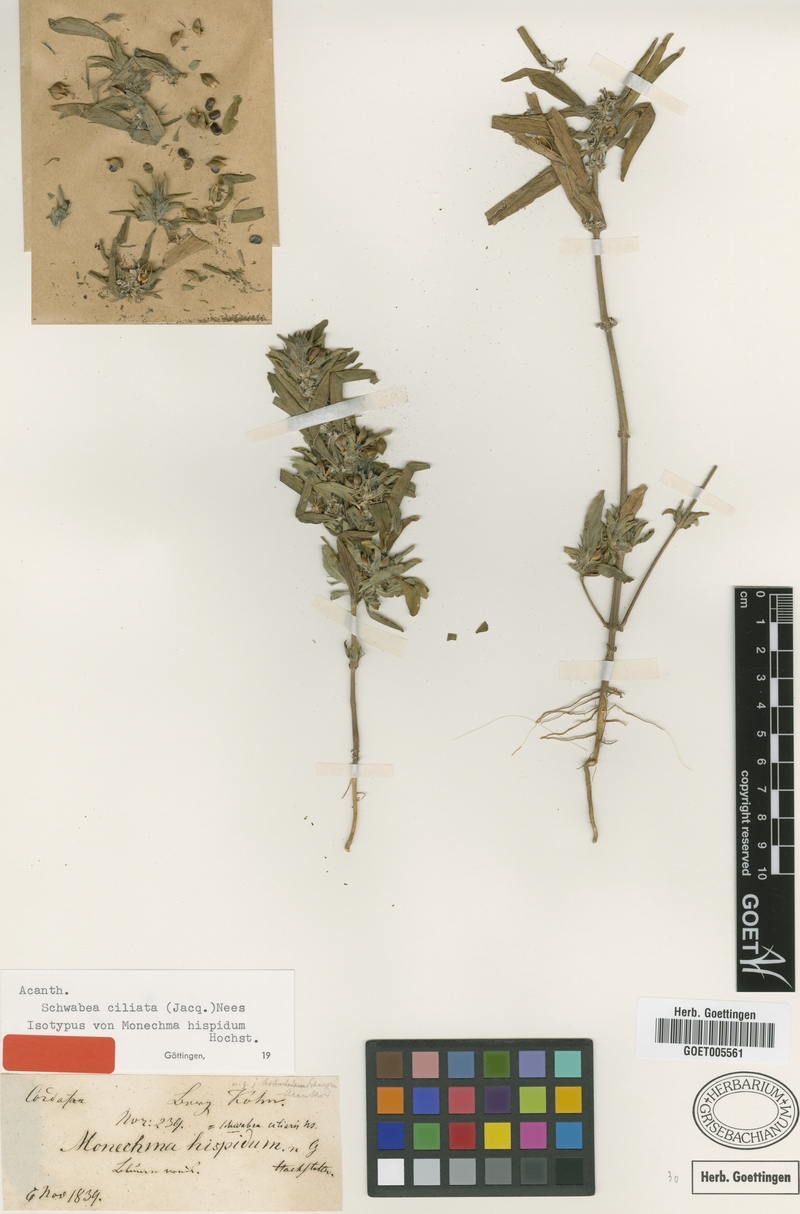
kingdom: Plantae
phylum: Tracheophyta
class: Magnoliopsida
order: Lamiales
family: Acanthaceae
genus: Monechma
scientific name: Monechma Schwabea ciliata
